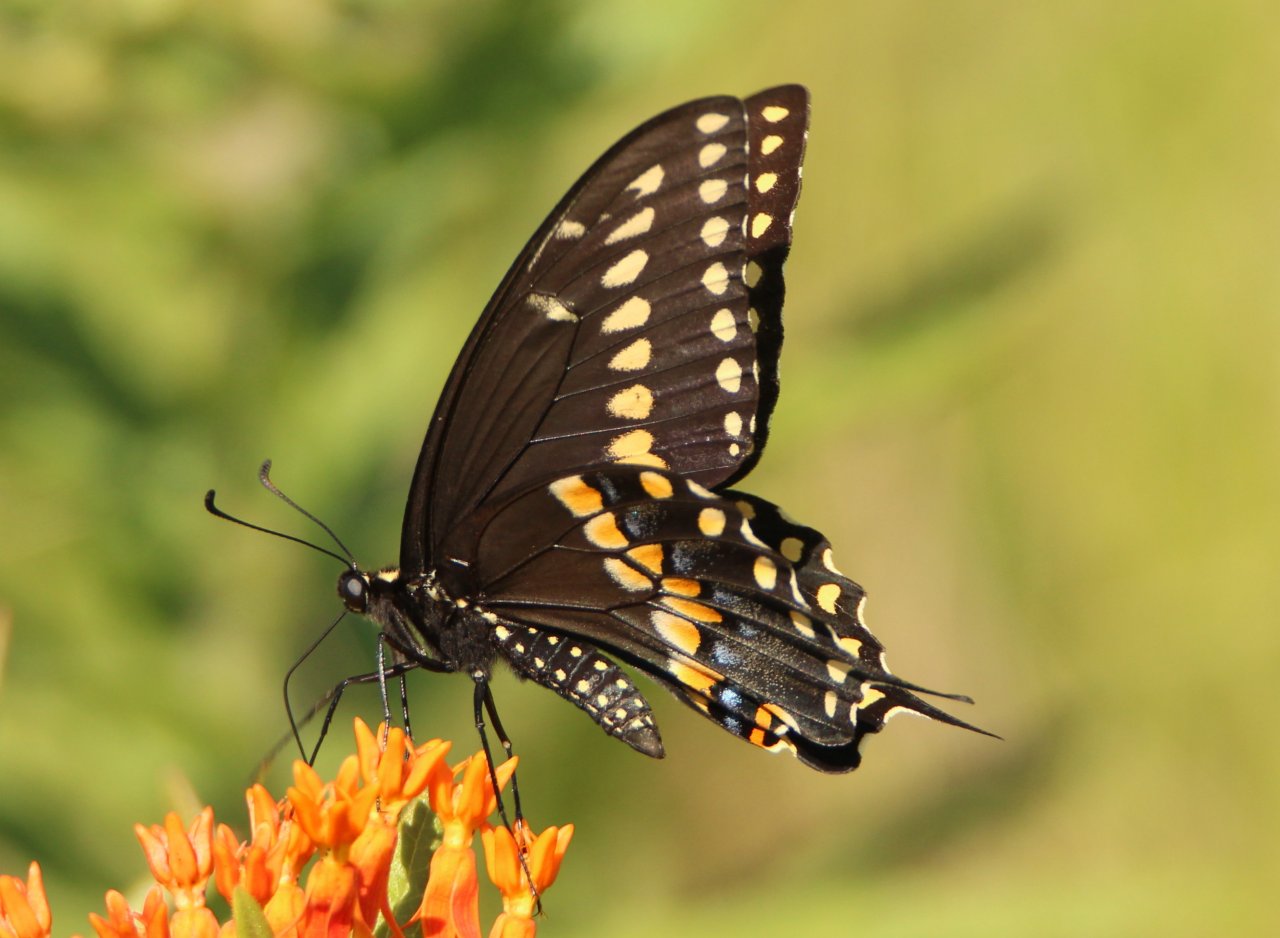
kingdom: Animalia
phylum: Arthropoda
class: Insecta
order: Lepidoptera
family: Papilionidae
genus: Papilio
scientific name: Papilio polyxenes
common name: Black Swallowtail
